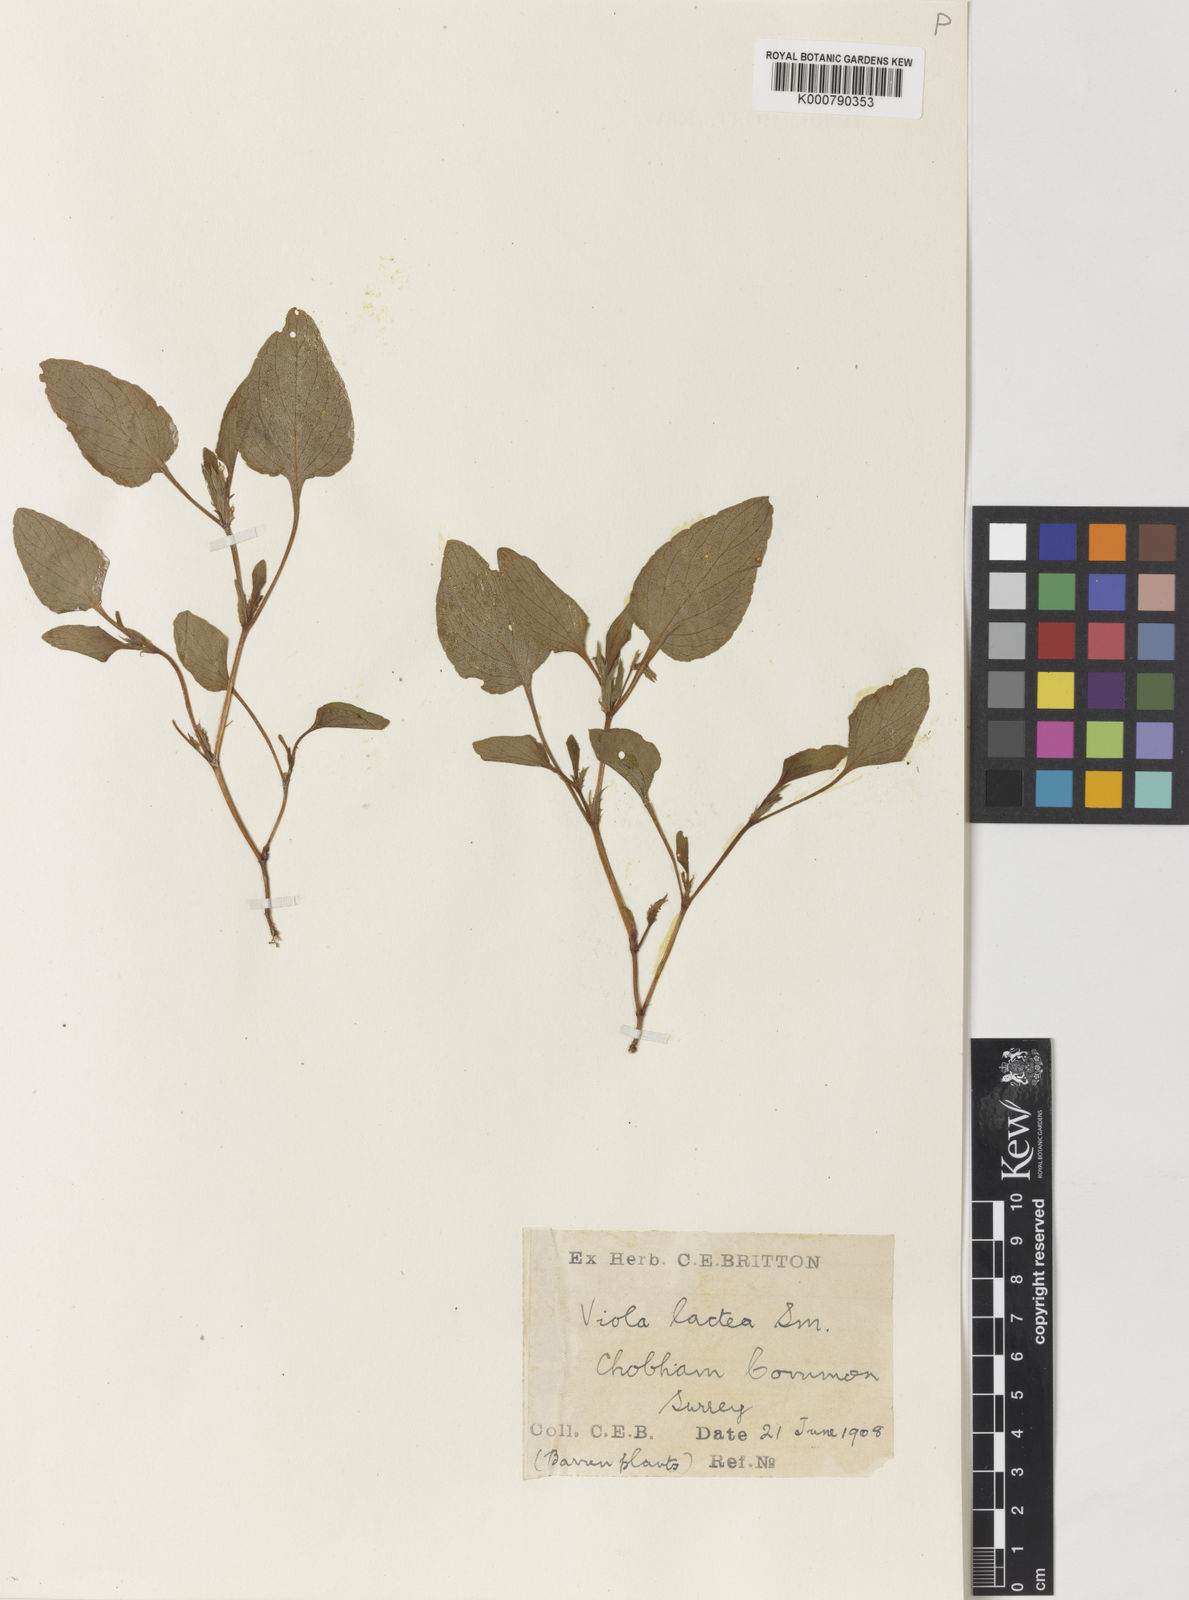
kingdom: Plantae
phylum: Tracheophyta
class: Magnoliopsida
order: Malpighiales
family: Violaceae
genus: Viola
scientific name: Viola lactea
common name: Pale dog-violet
